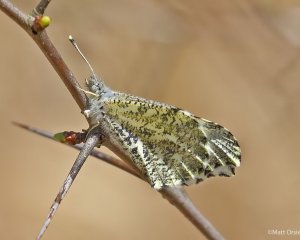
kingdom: Animalia
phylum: Arthropoda
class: Insecta
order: Lepidoptera
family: Pieridae
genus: Anthocharis
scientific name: Anthocharis midea
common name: Falcate Orangetip
